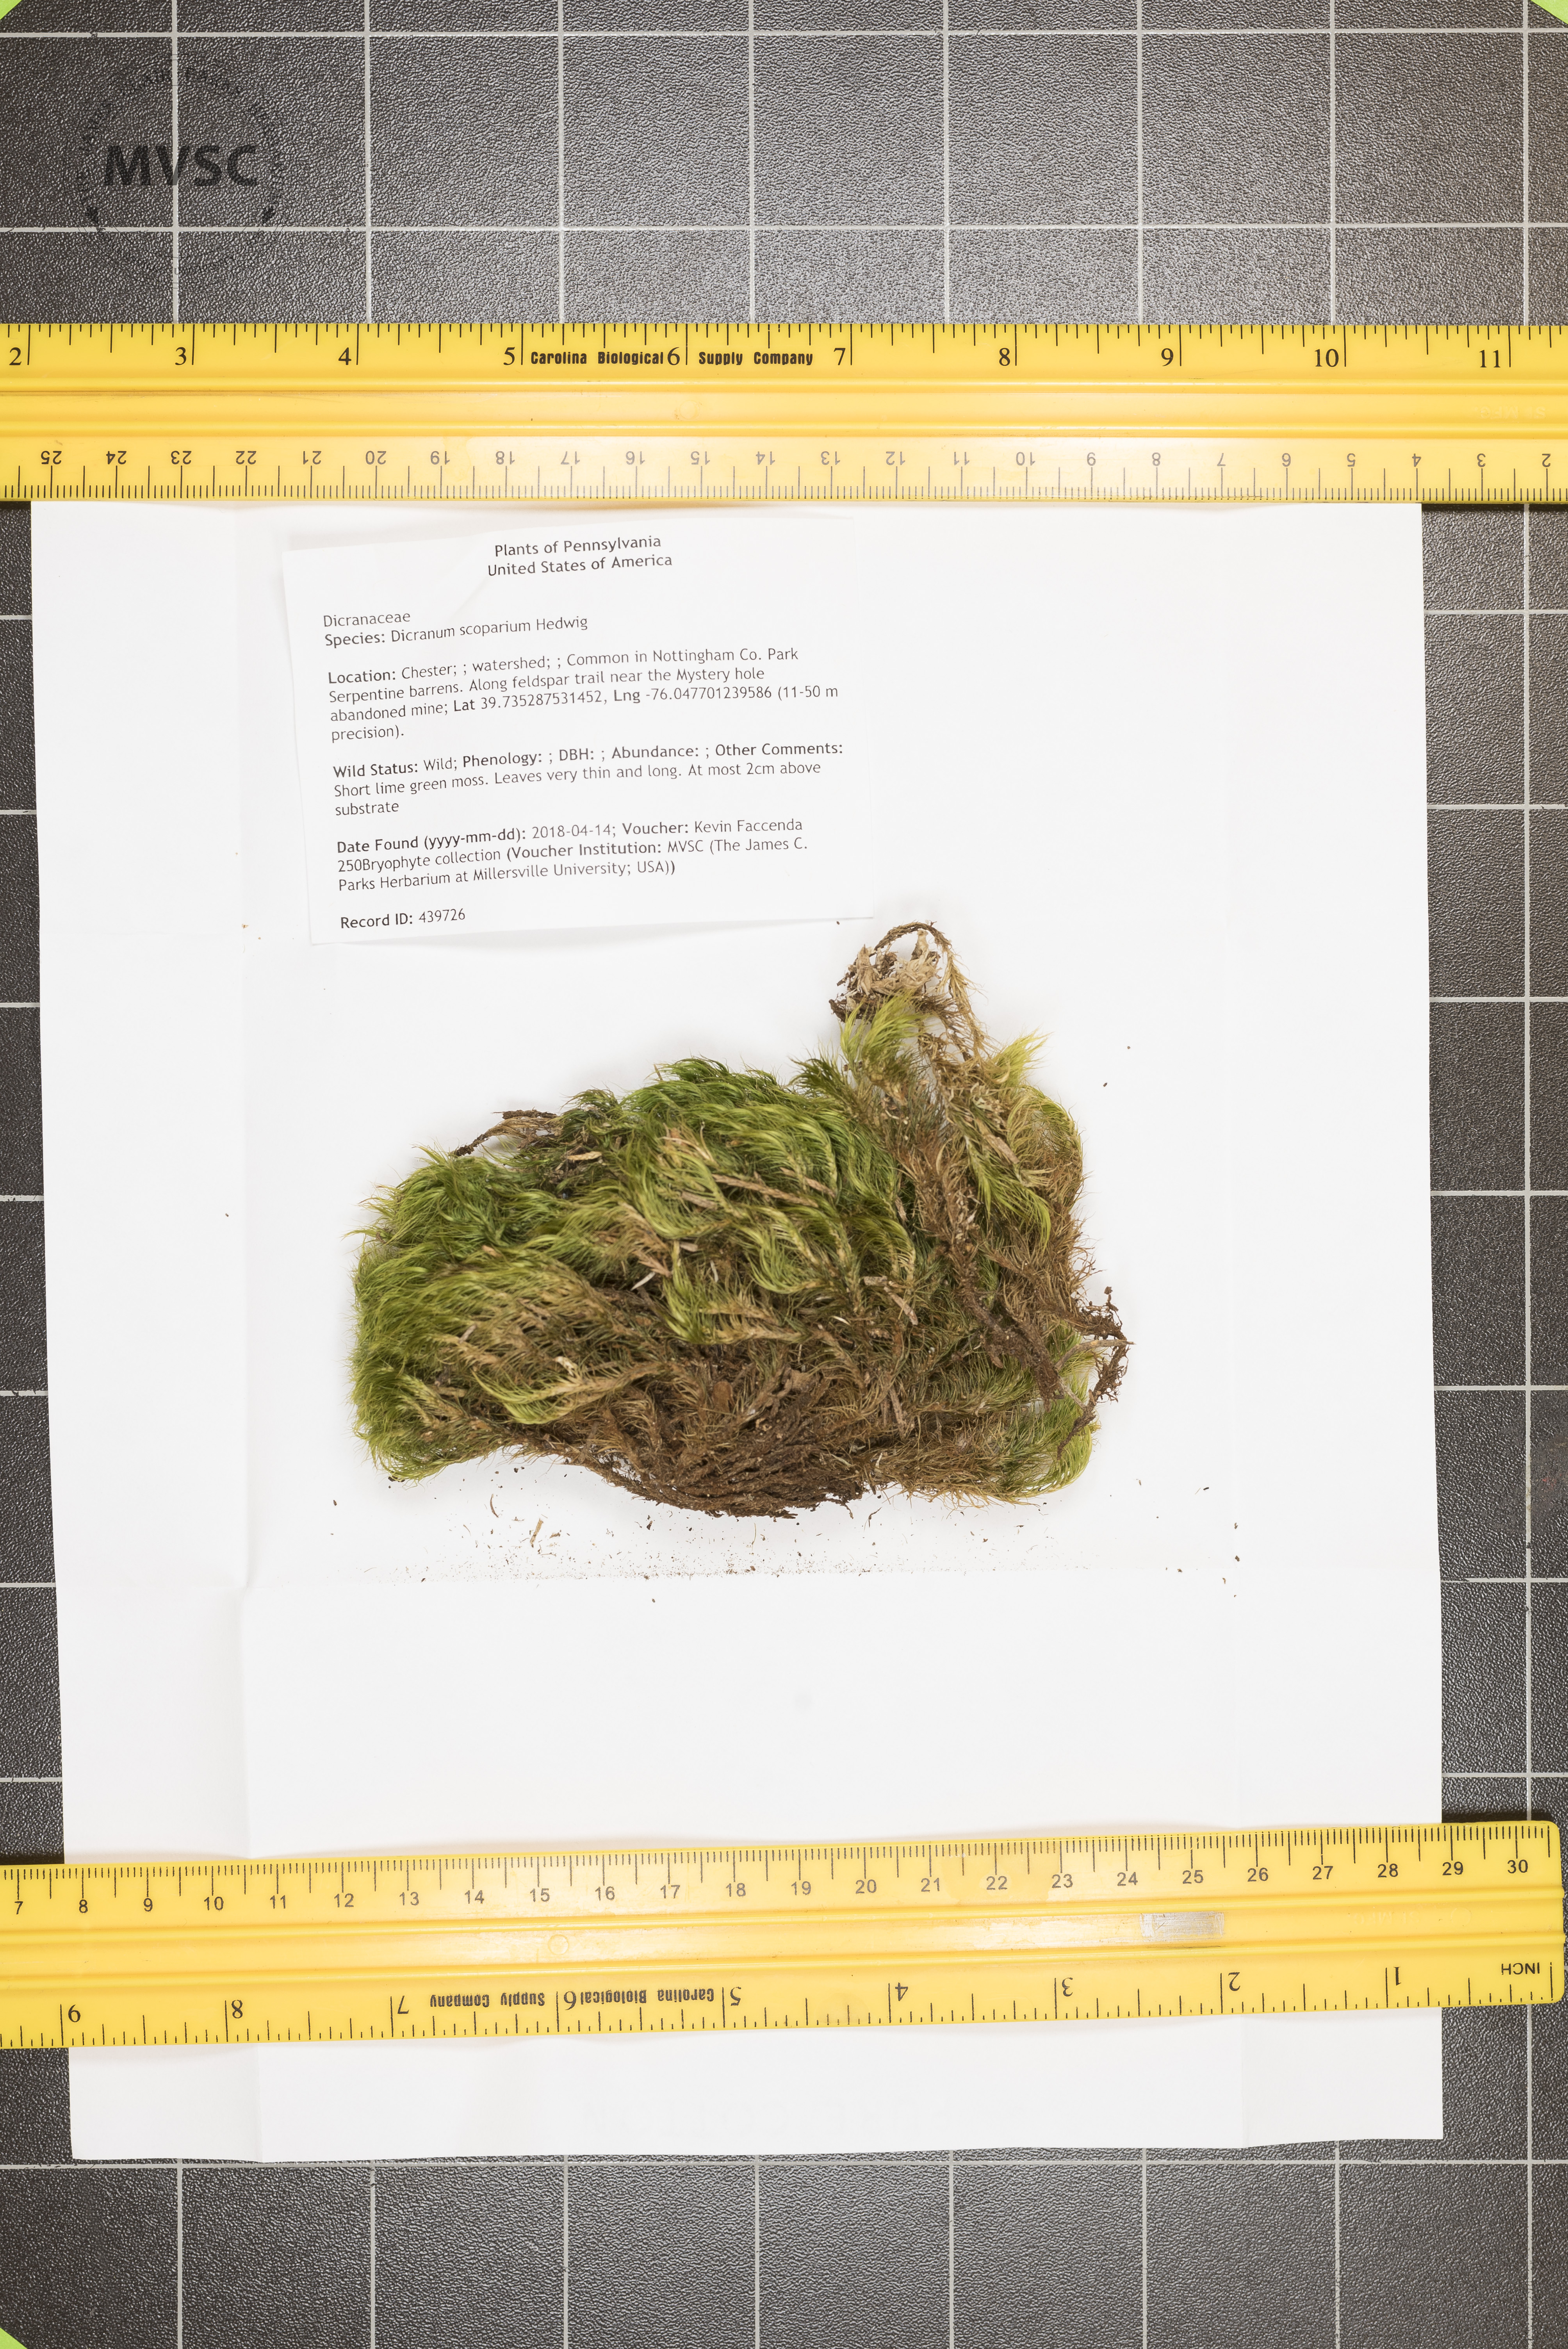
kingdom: Plantae
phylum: Bryophyta
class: Bryopsida
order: Dicranales
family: Dicranaceae
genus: Dicranum
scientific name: Dicranum scoparium
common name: Broom fork-moss
